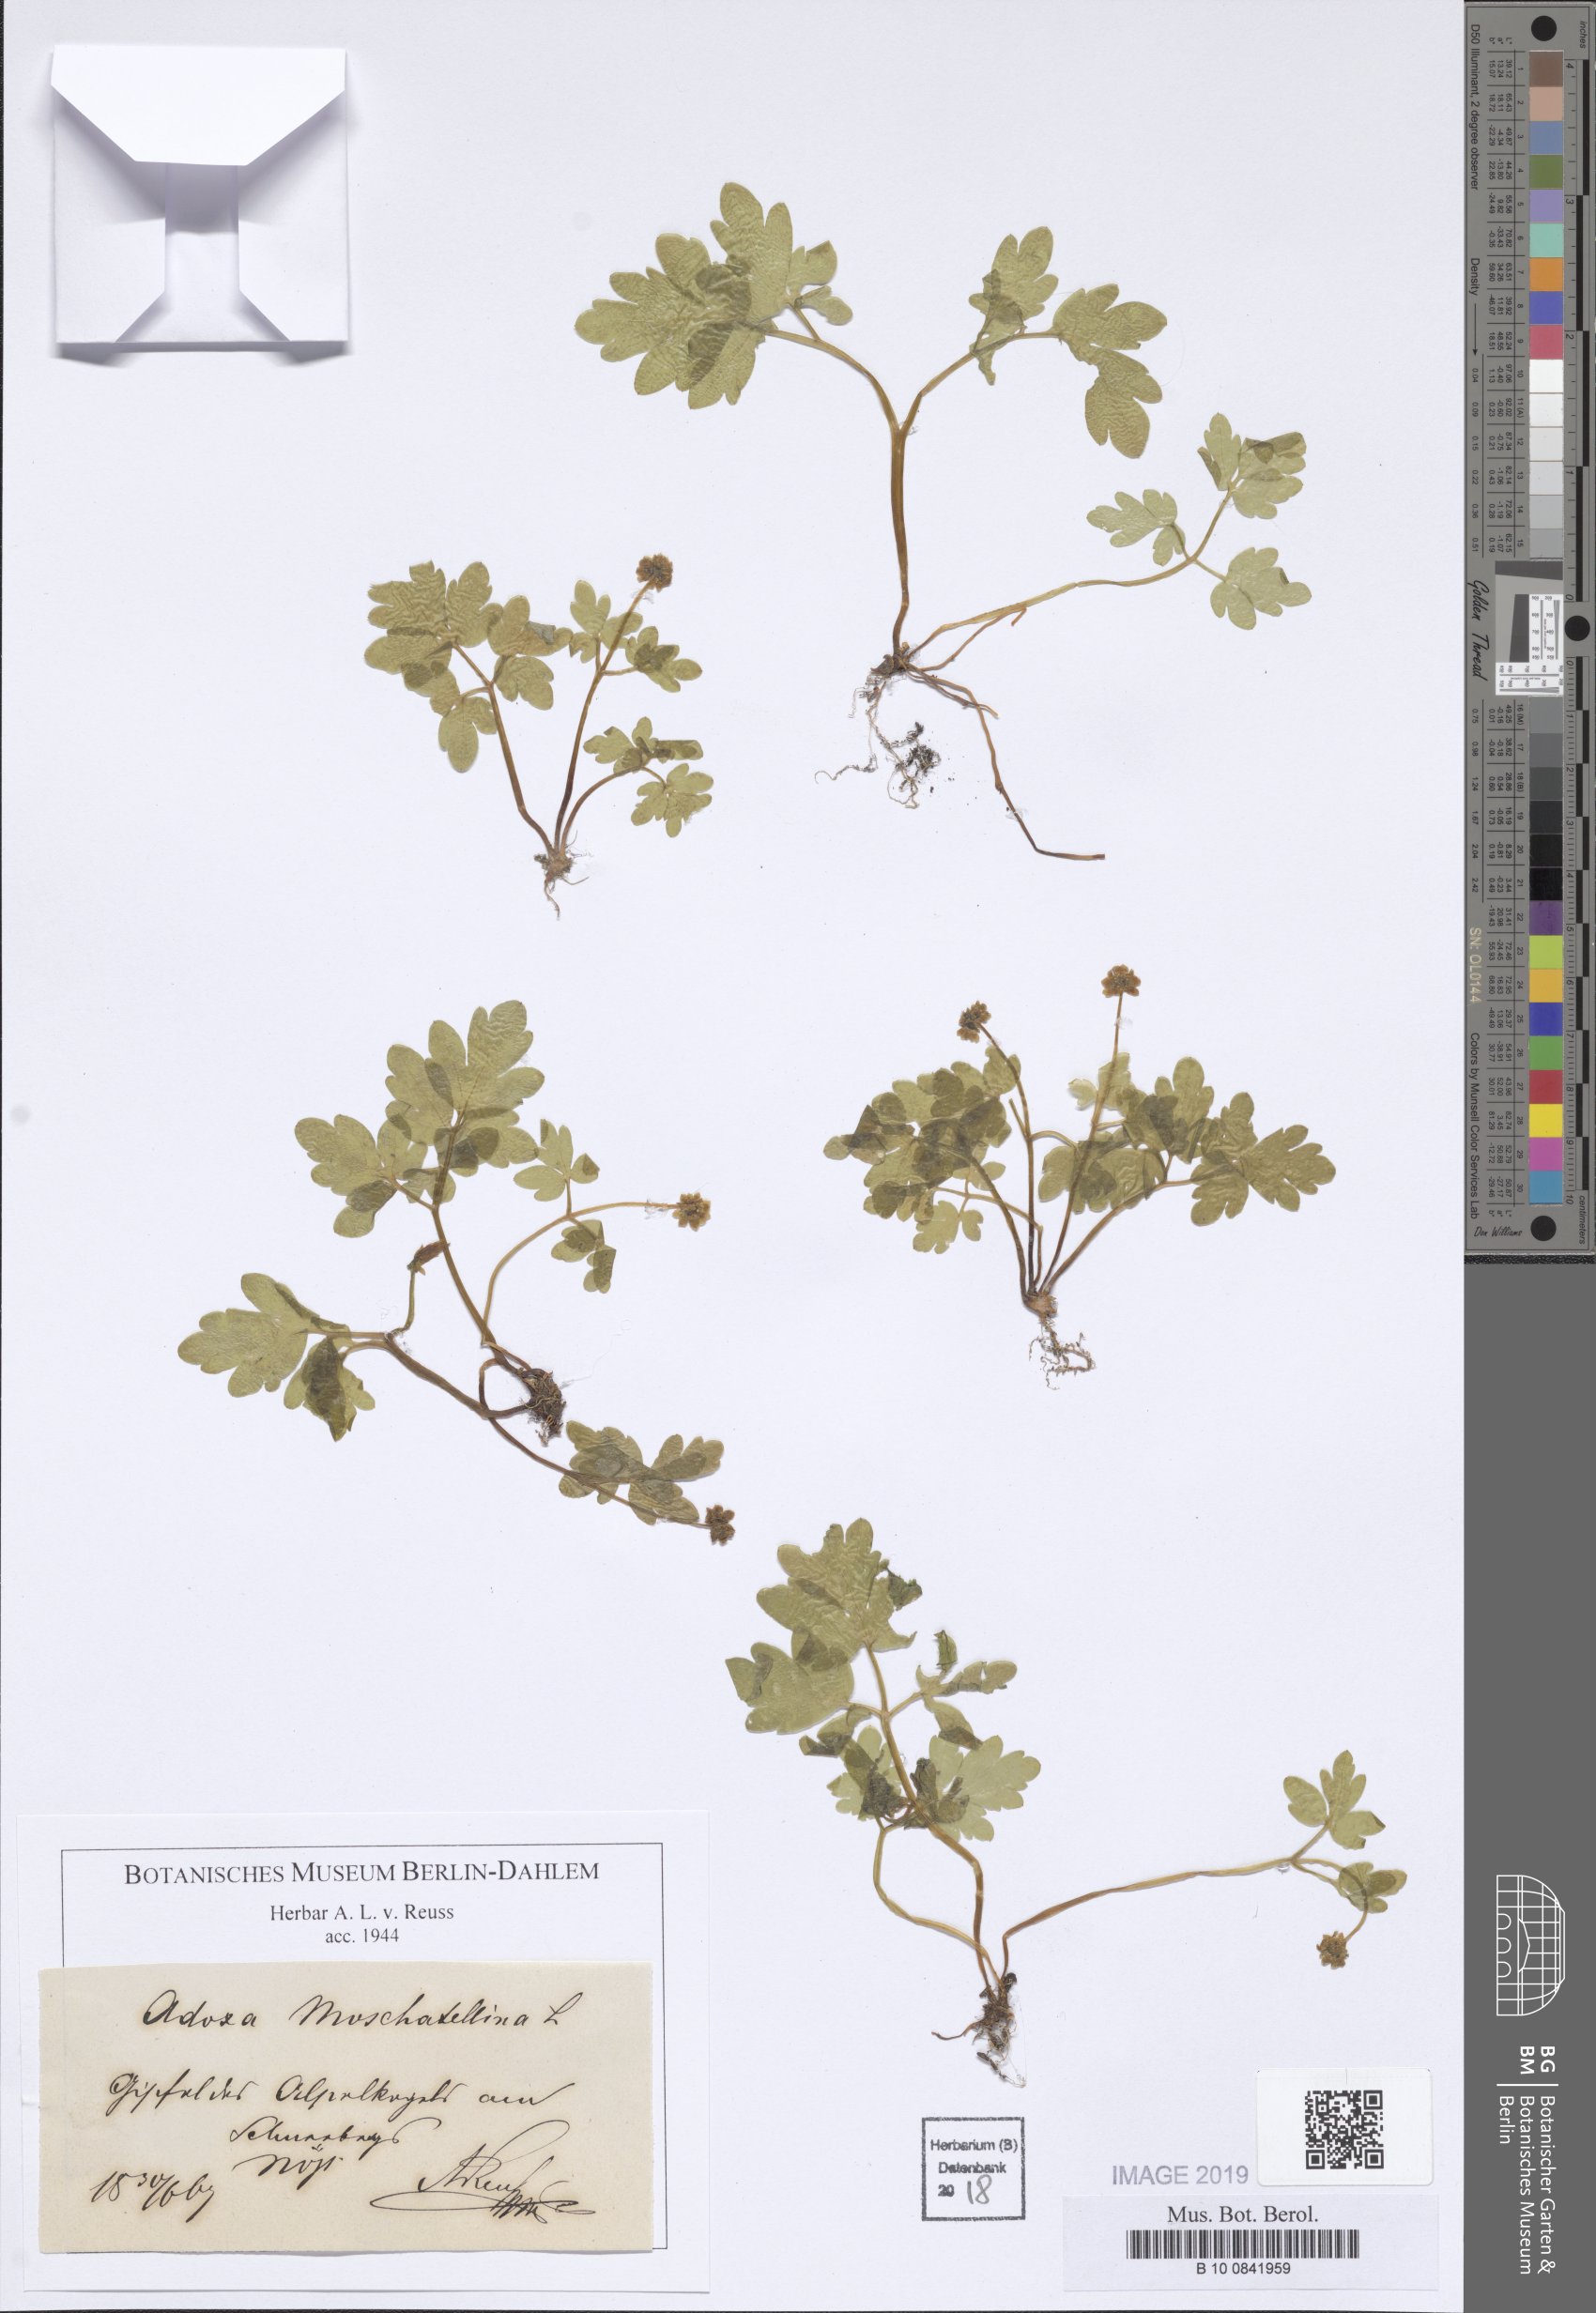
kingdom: Plantae
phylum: Tracheophyta
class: Magnoliopsida
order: Dipsacales
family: Viburnaceae
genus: Adoxa
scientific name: Adoxa moschatellina
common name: Moschatel
